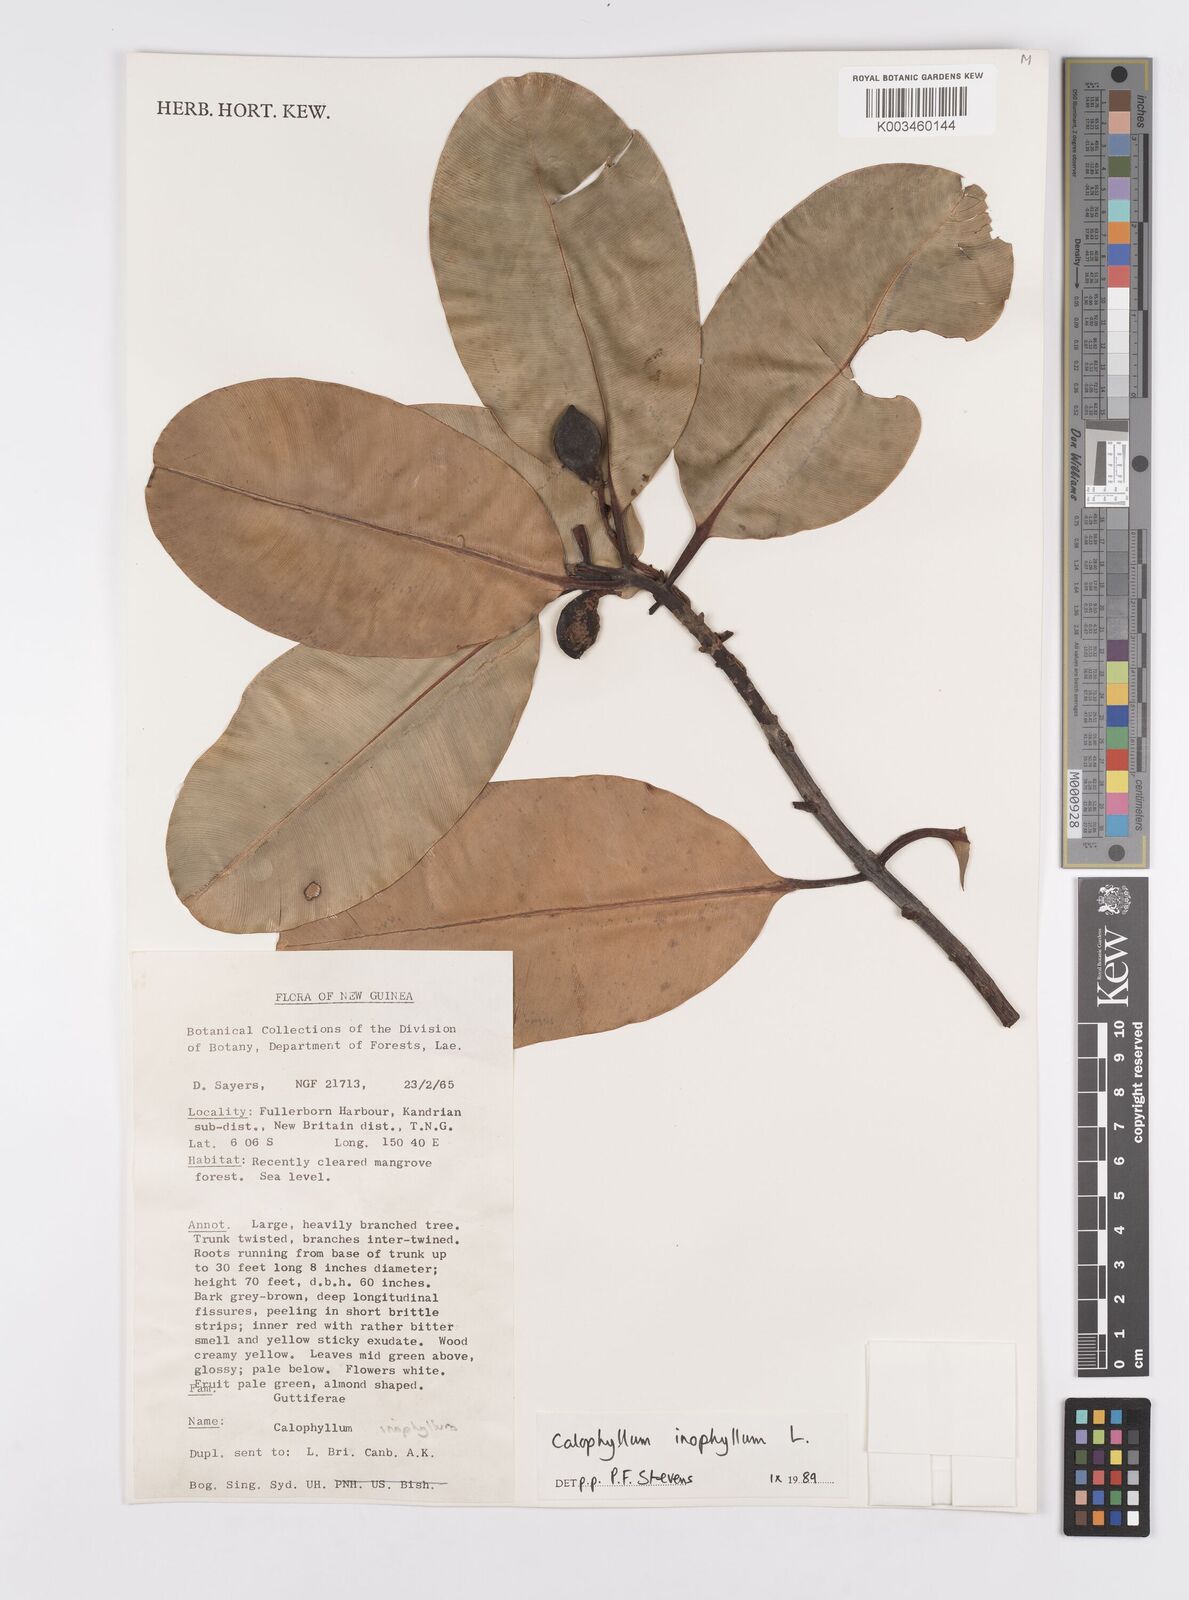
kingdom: Plantae
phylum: Tracheophyta
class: Magnoliopsida
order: Malpighiales
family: Calophyllaceae
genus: Calophyllum
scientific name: Calophyllum inophyllum
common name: Alexandrian laurel
